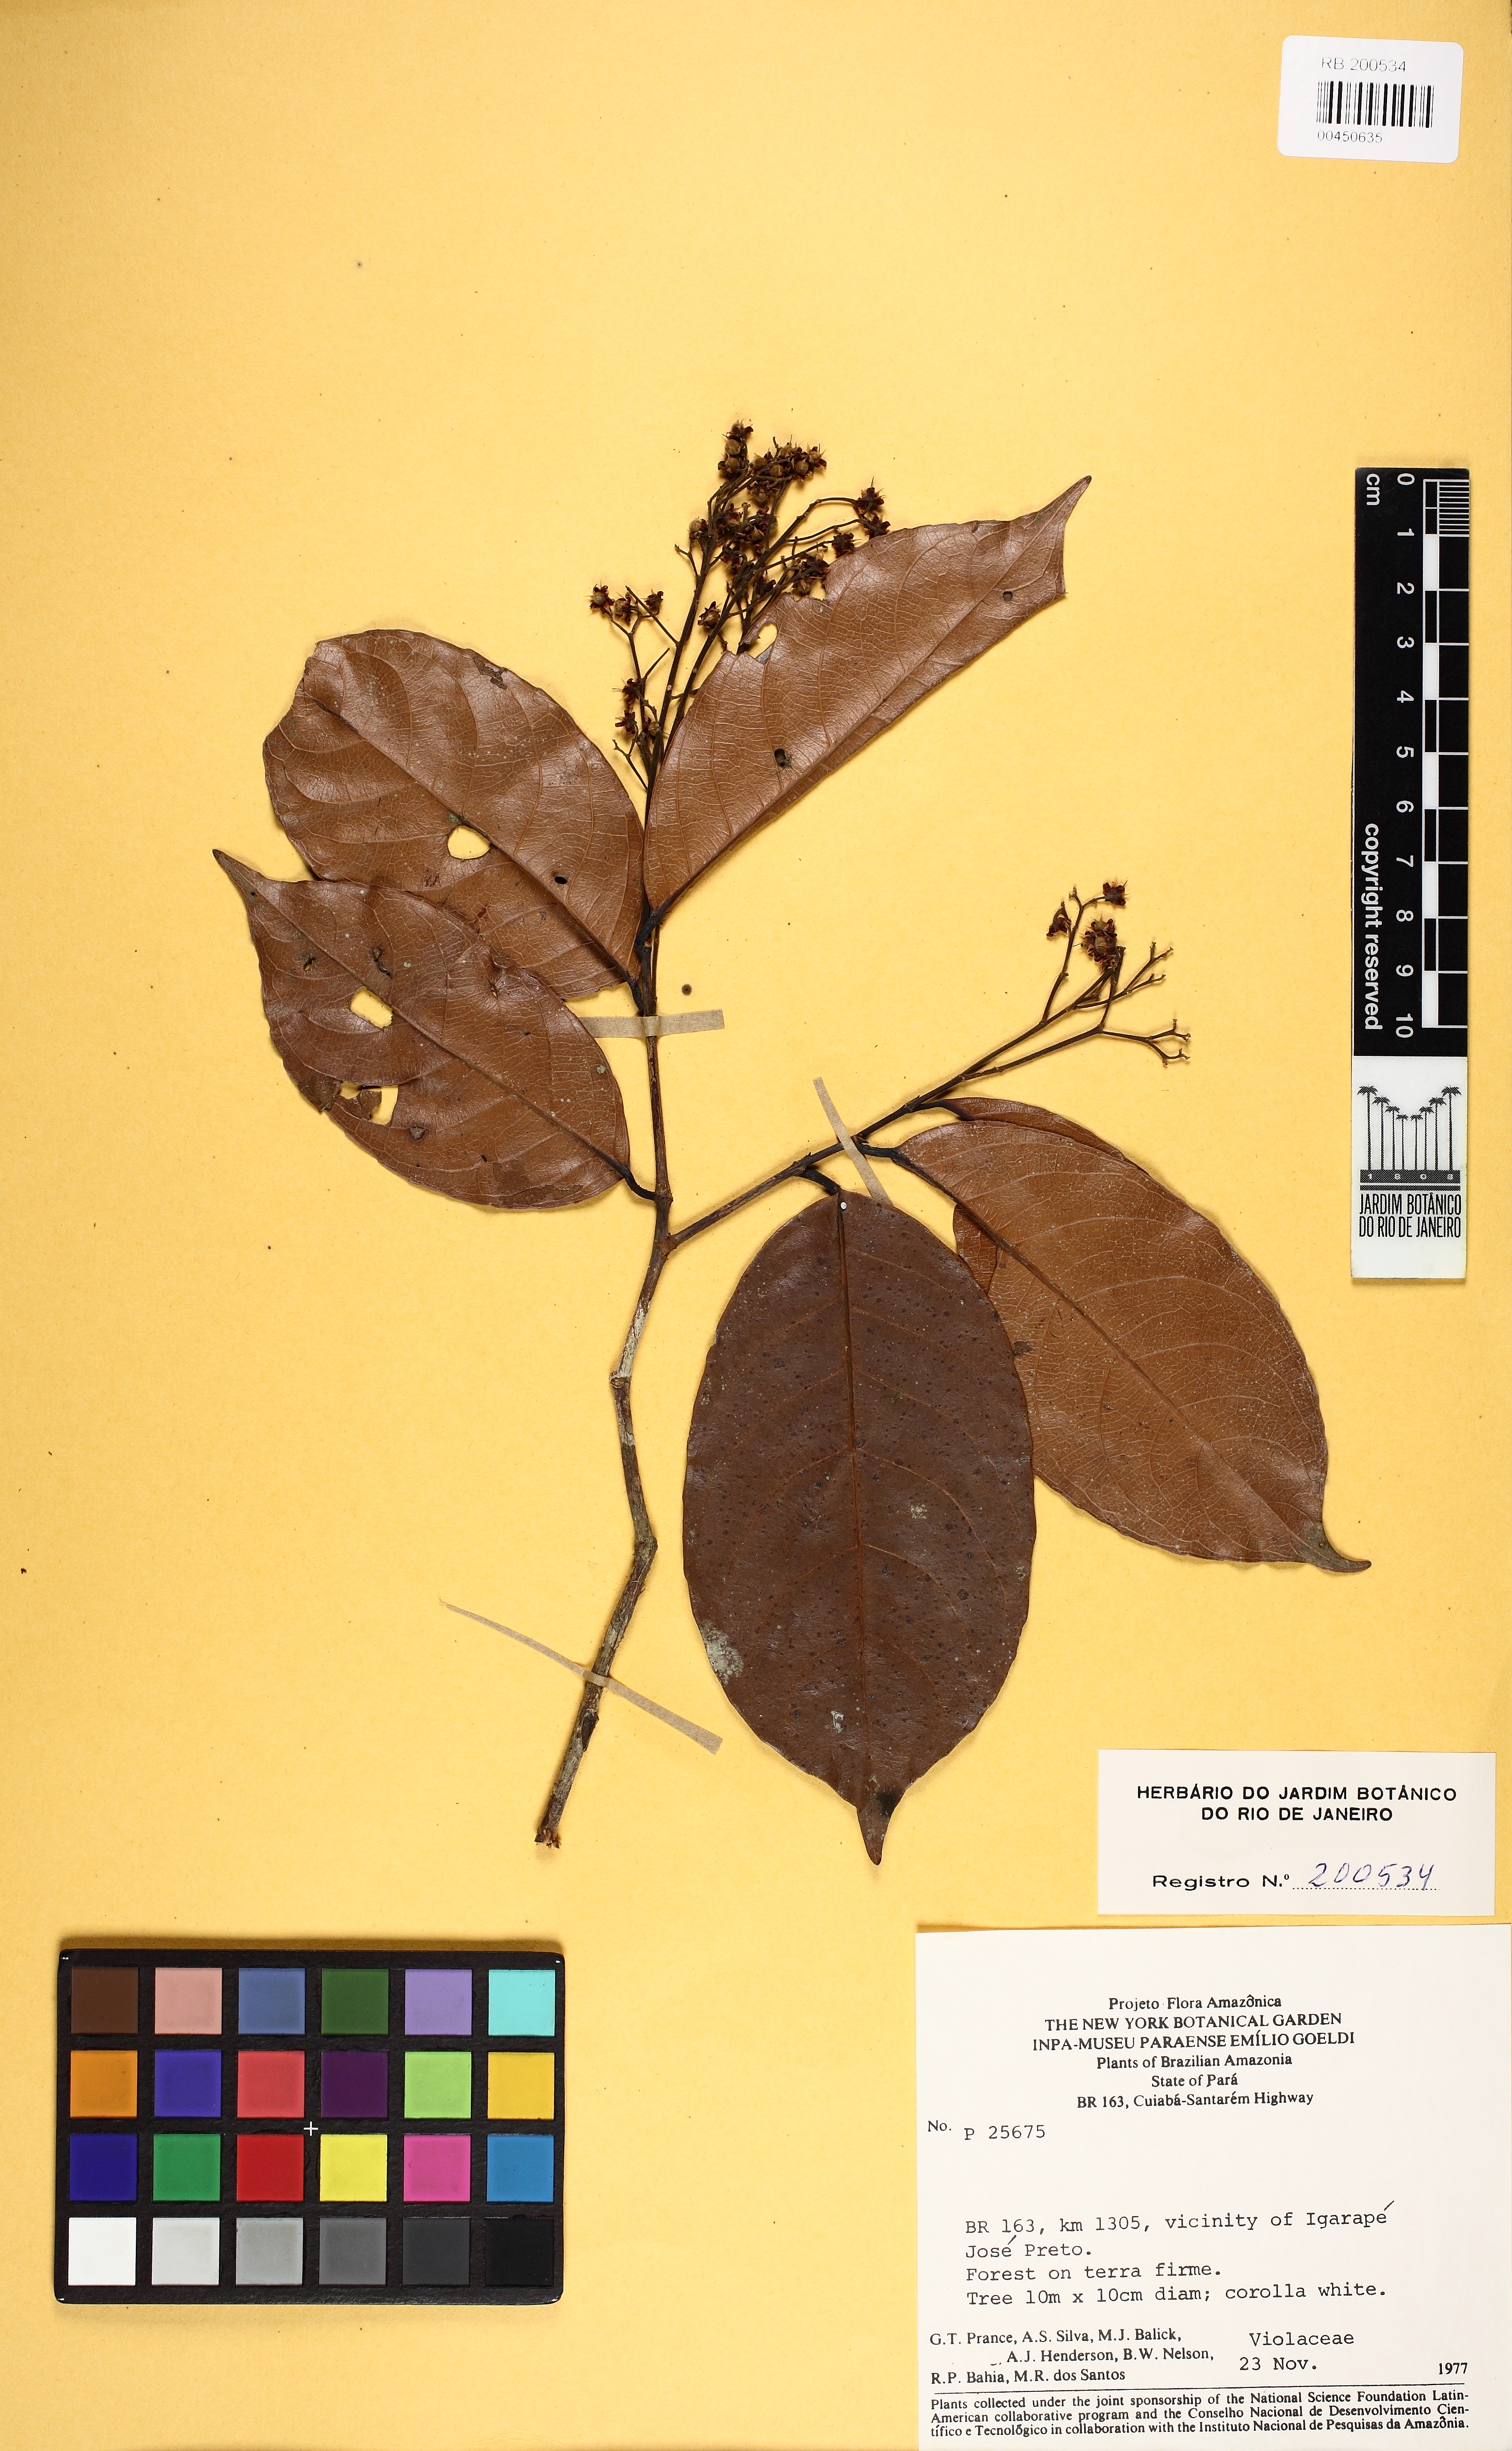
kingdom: Plantae
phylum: Tracheophyta
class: Magnoliopsida
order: Malpighiales
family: Violaceae
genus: Rinorea
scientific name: Rinorea guianensis
